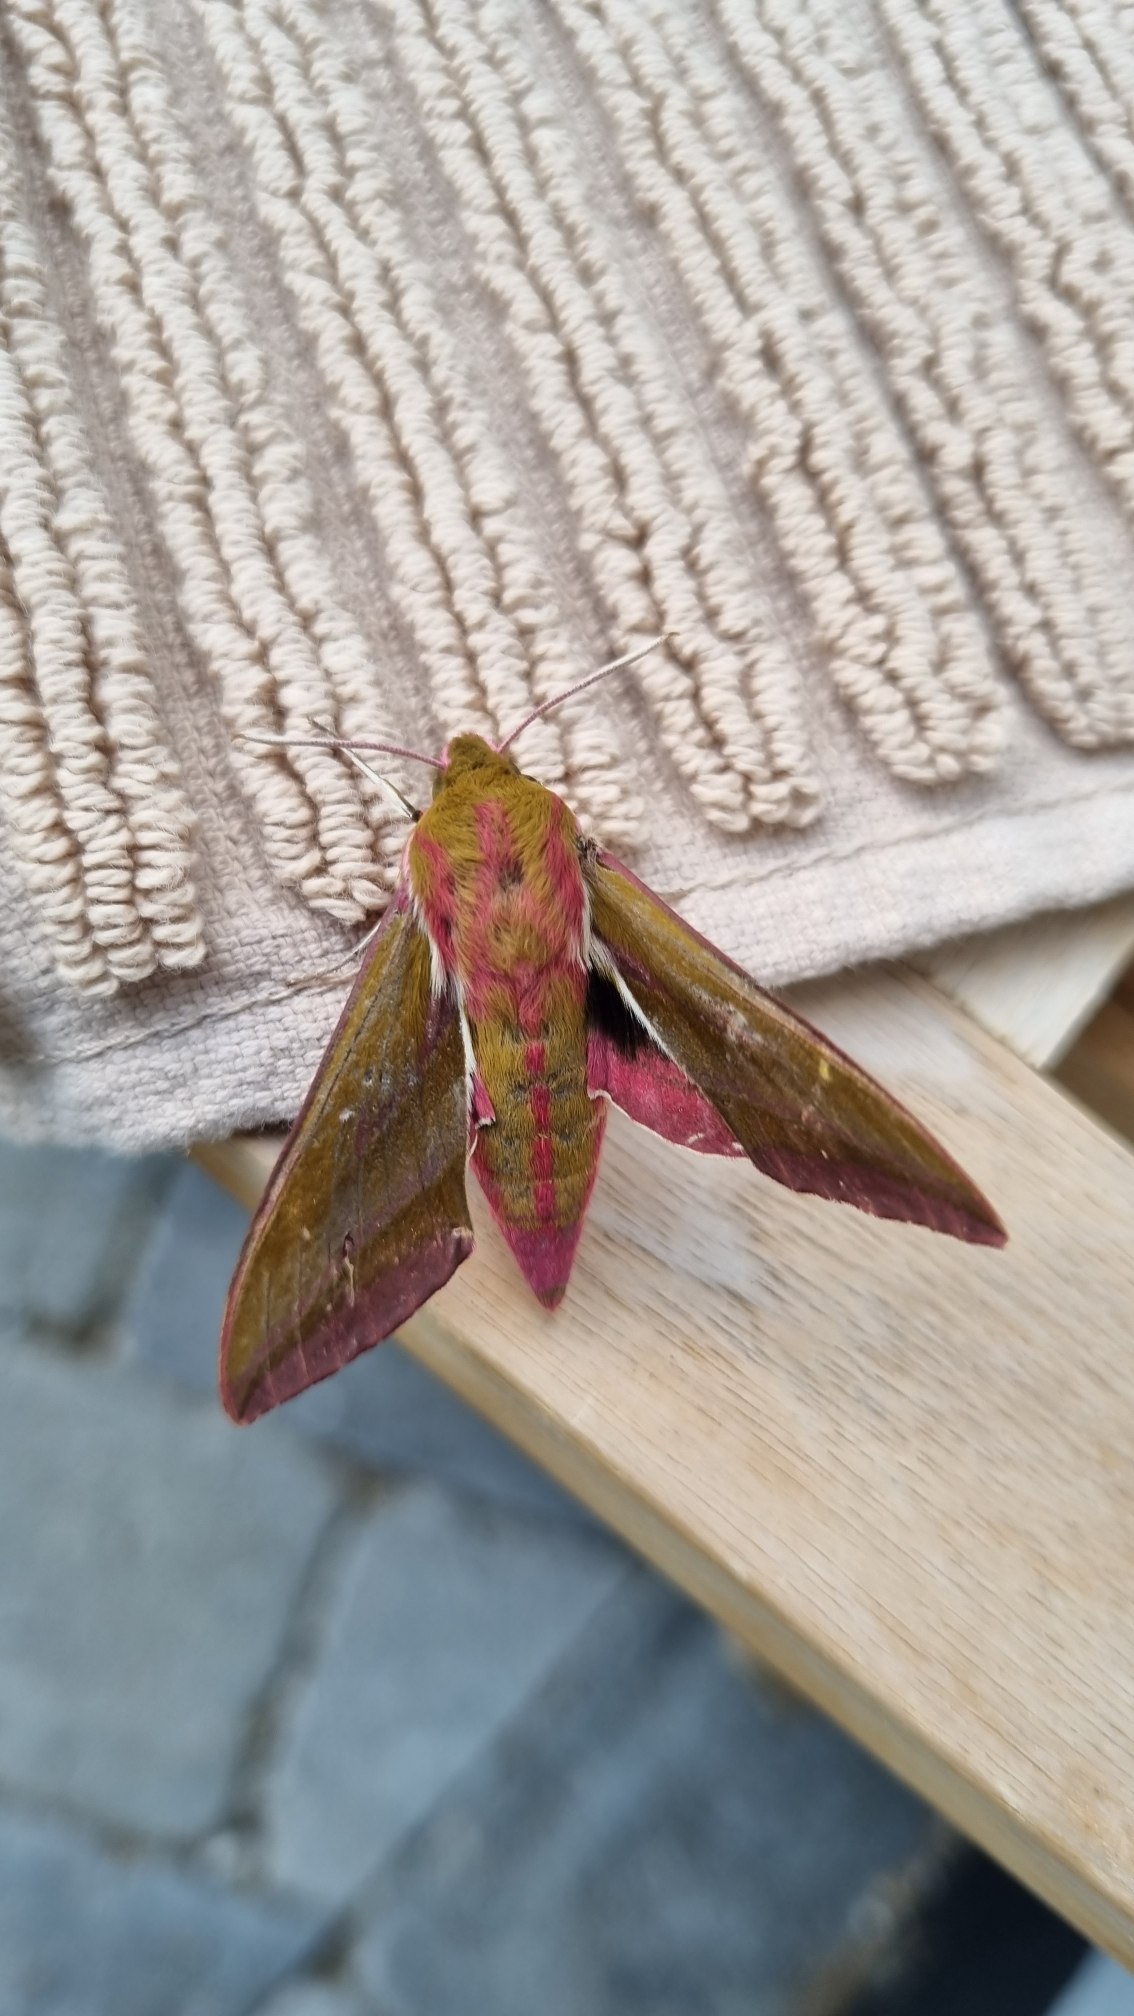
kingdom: Animalia
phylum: Arthropoda
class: Insecta
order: Lepidoptera
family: Sphingidae
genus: Deilephila
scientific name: Deilephila elpenor
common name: Dueurtsværmer
